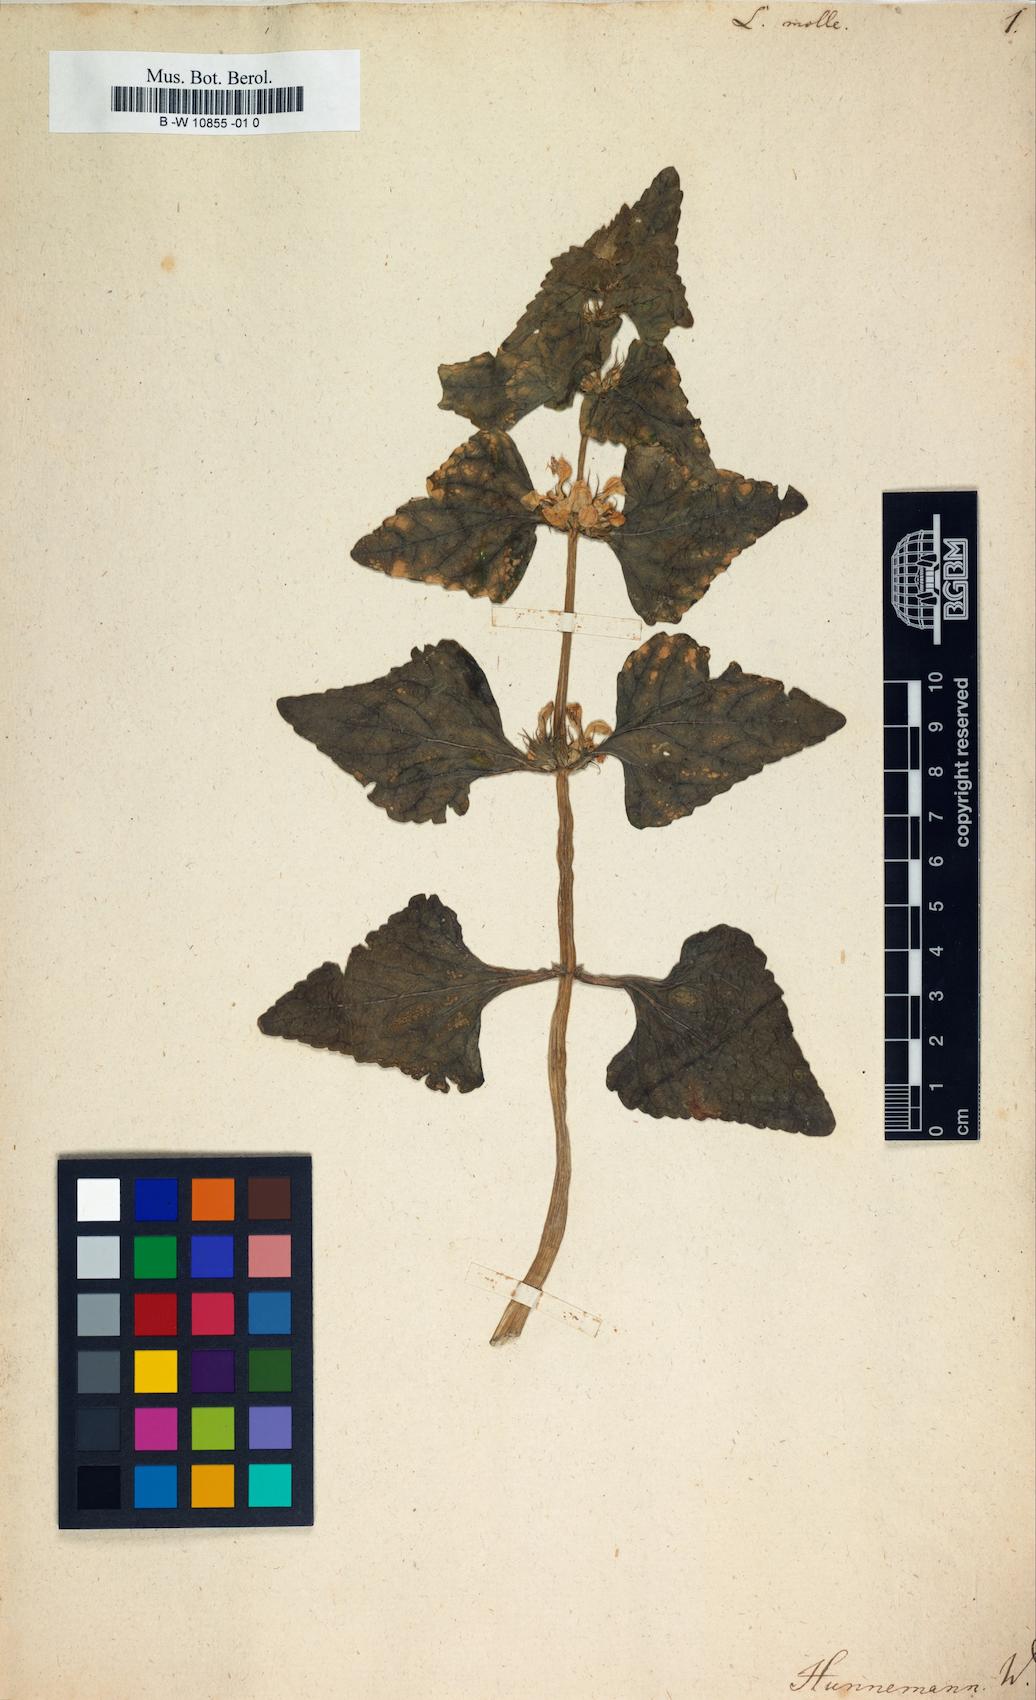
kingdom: Plantae
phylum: Tracheophyta
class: Magnoliopsida
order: Lamiales
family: Lamiaceae
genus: Lamium
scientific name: Lamium molle
